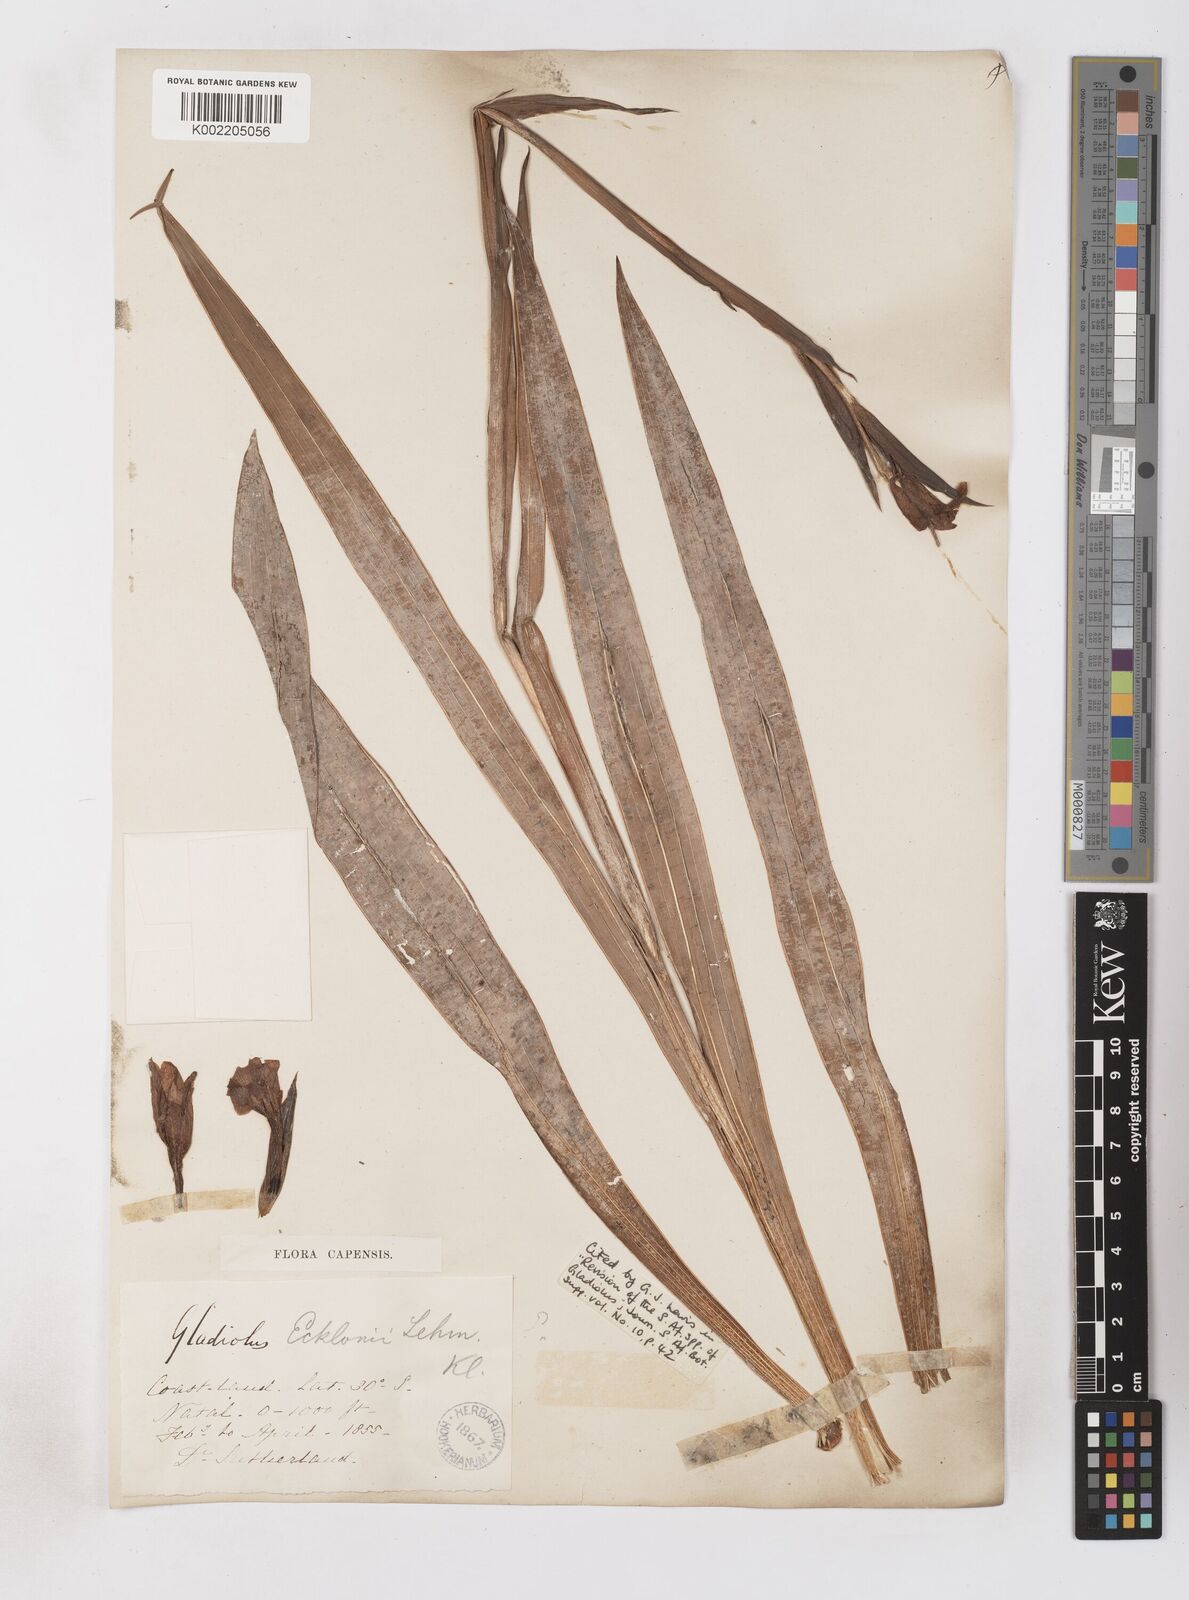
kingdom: Plantae
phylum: Tracheophyta
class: Liliopsida
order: Asparagales
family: Iridaceae
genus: Gladiolus
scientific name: Gladiolus ecklonii
